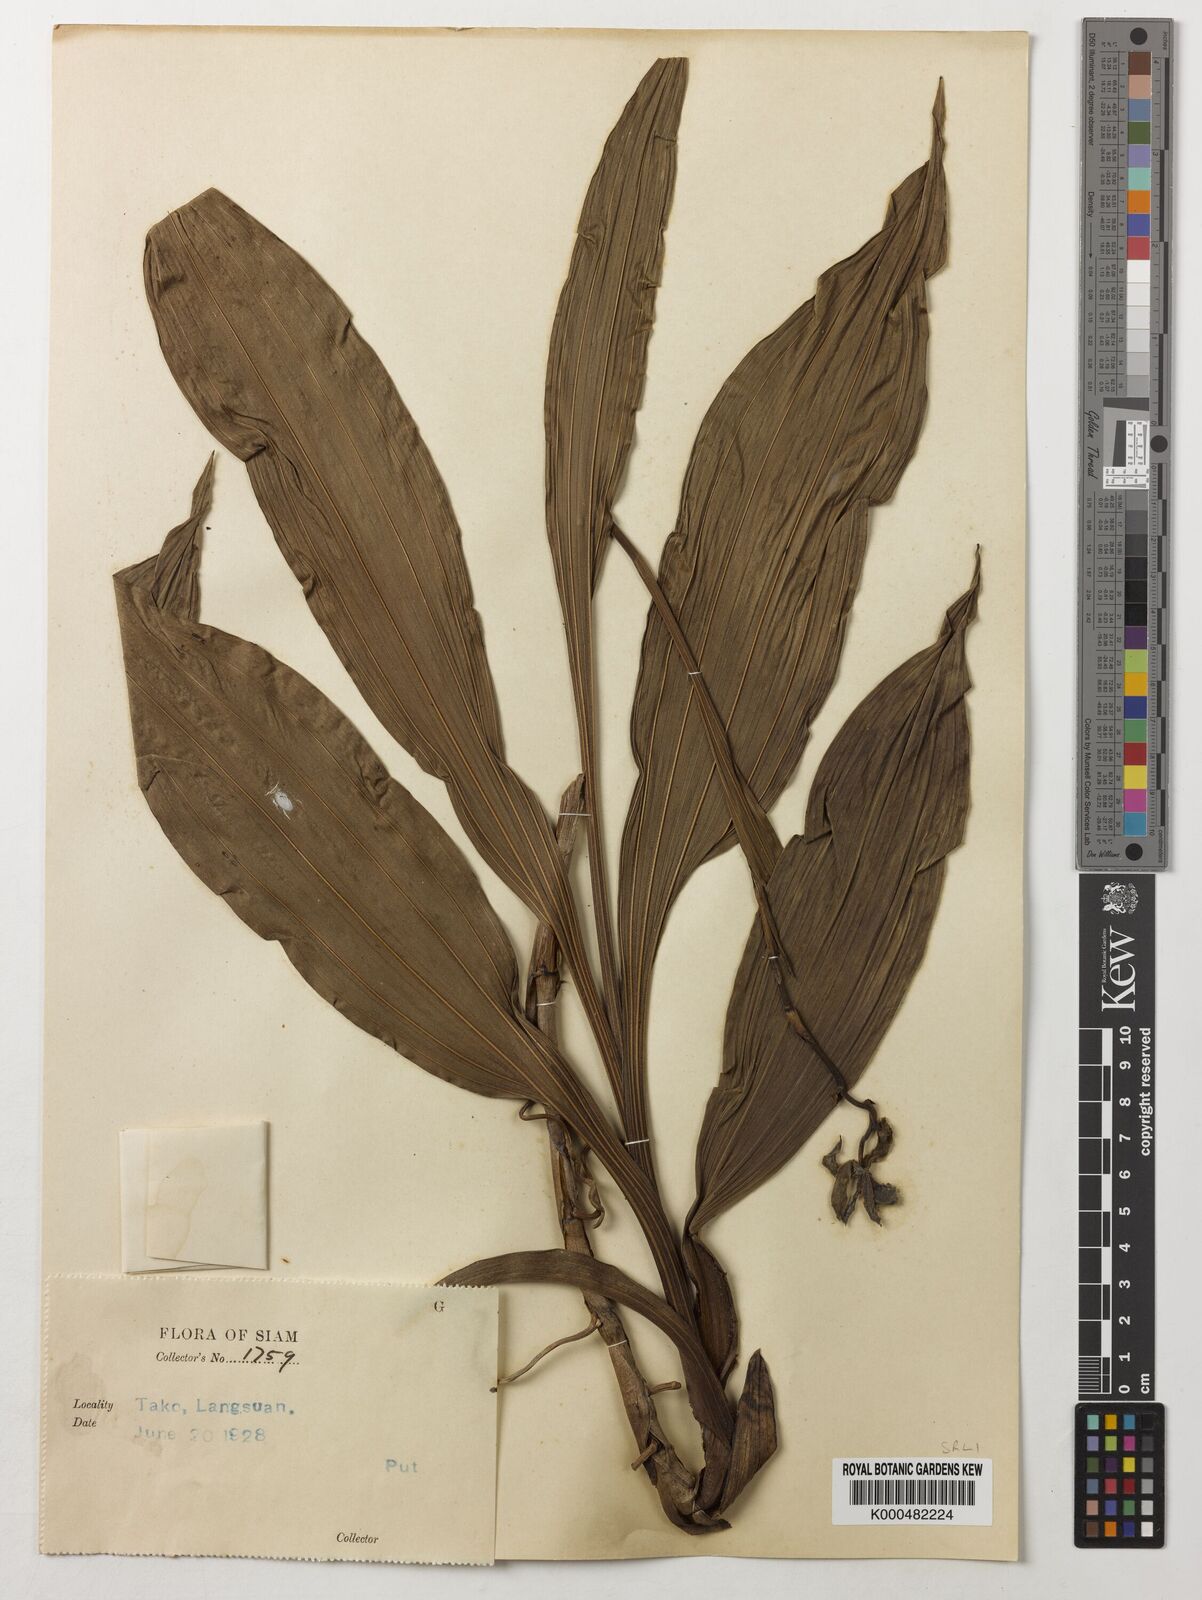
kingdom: Plantae
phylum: Tracheophyta
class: Liliopsida
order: Asparagales
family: Orchidaceae
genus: Claderia
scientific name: Claderia
